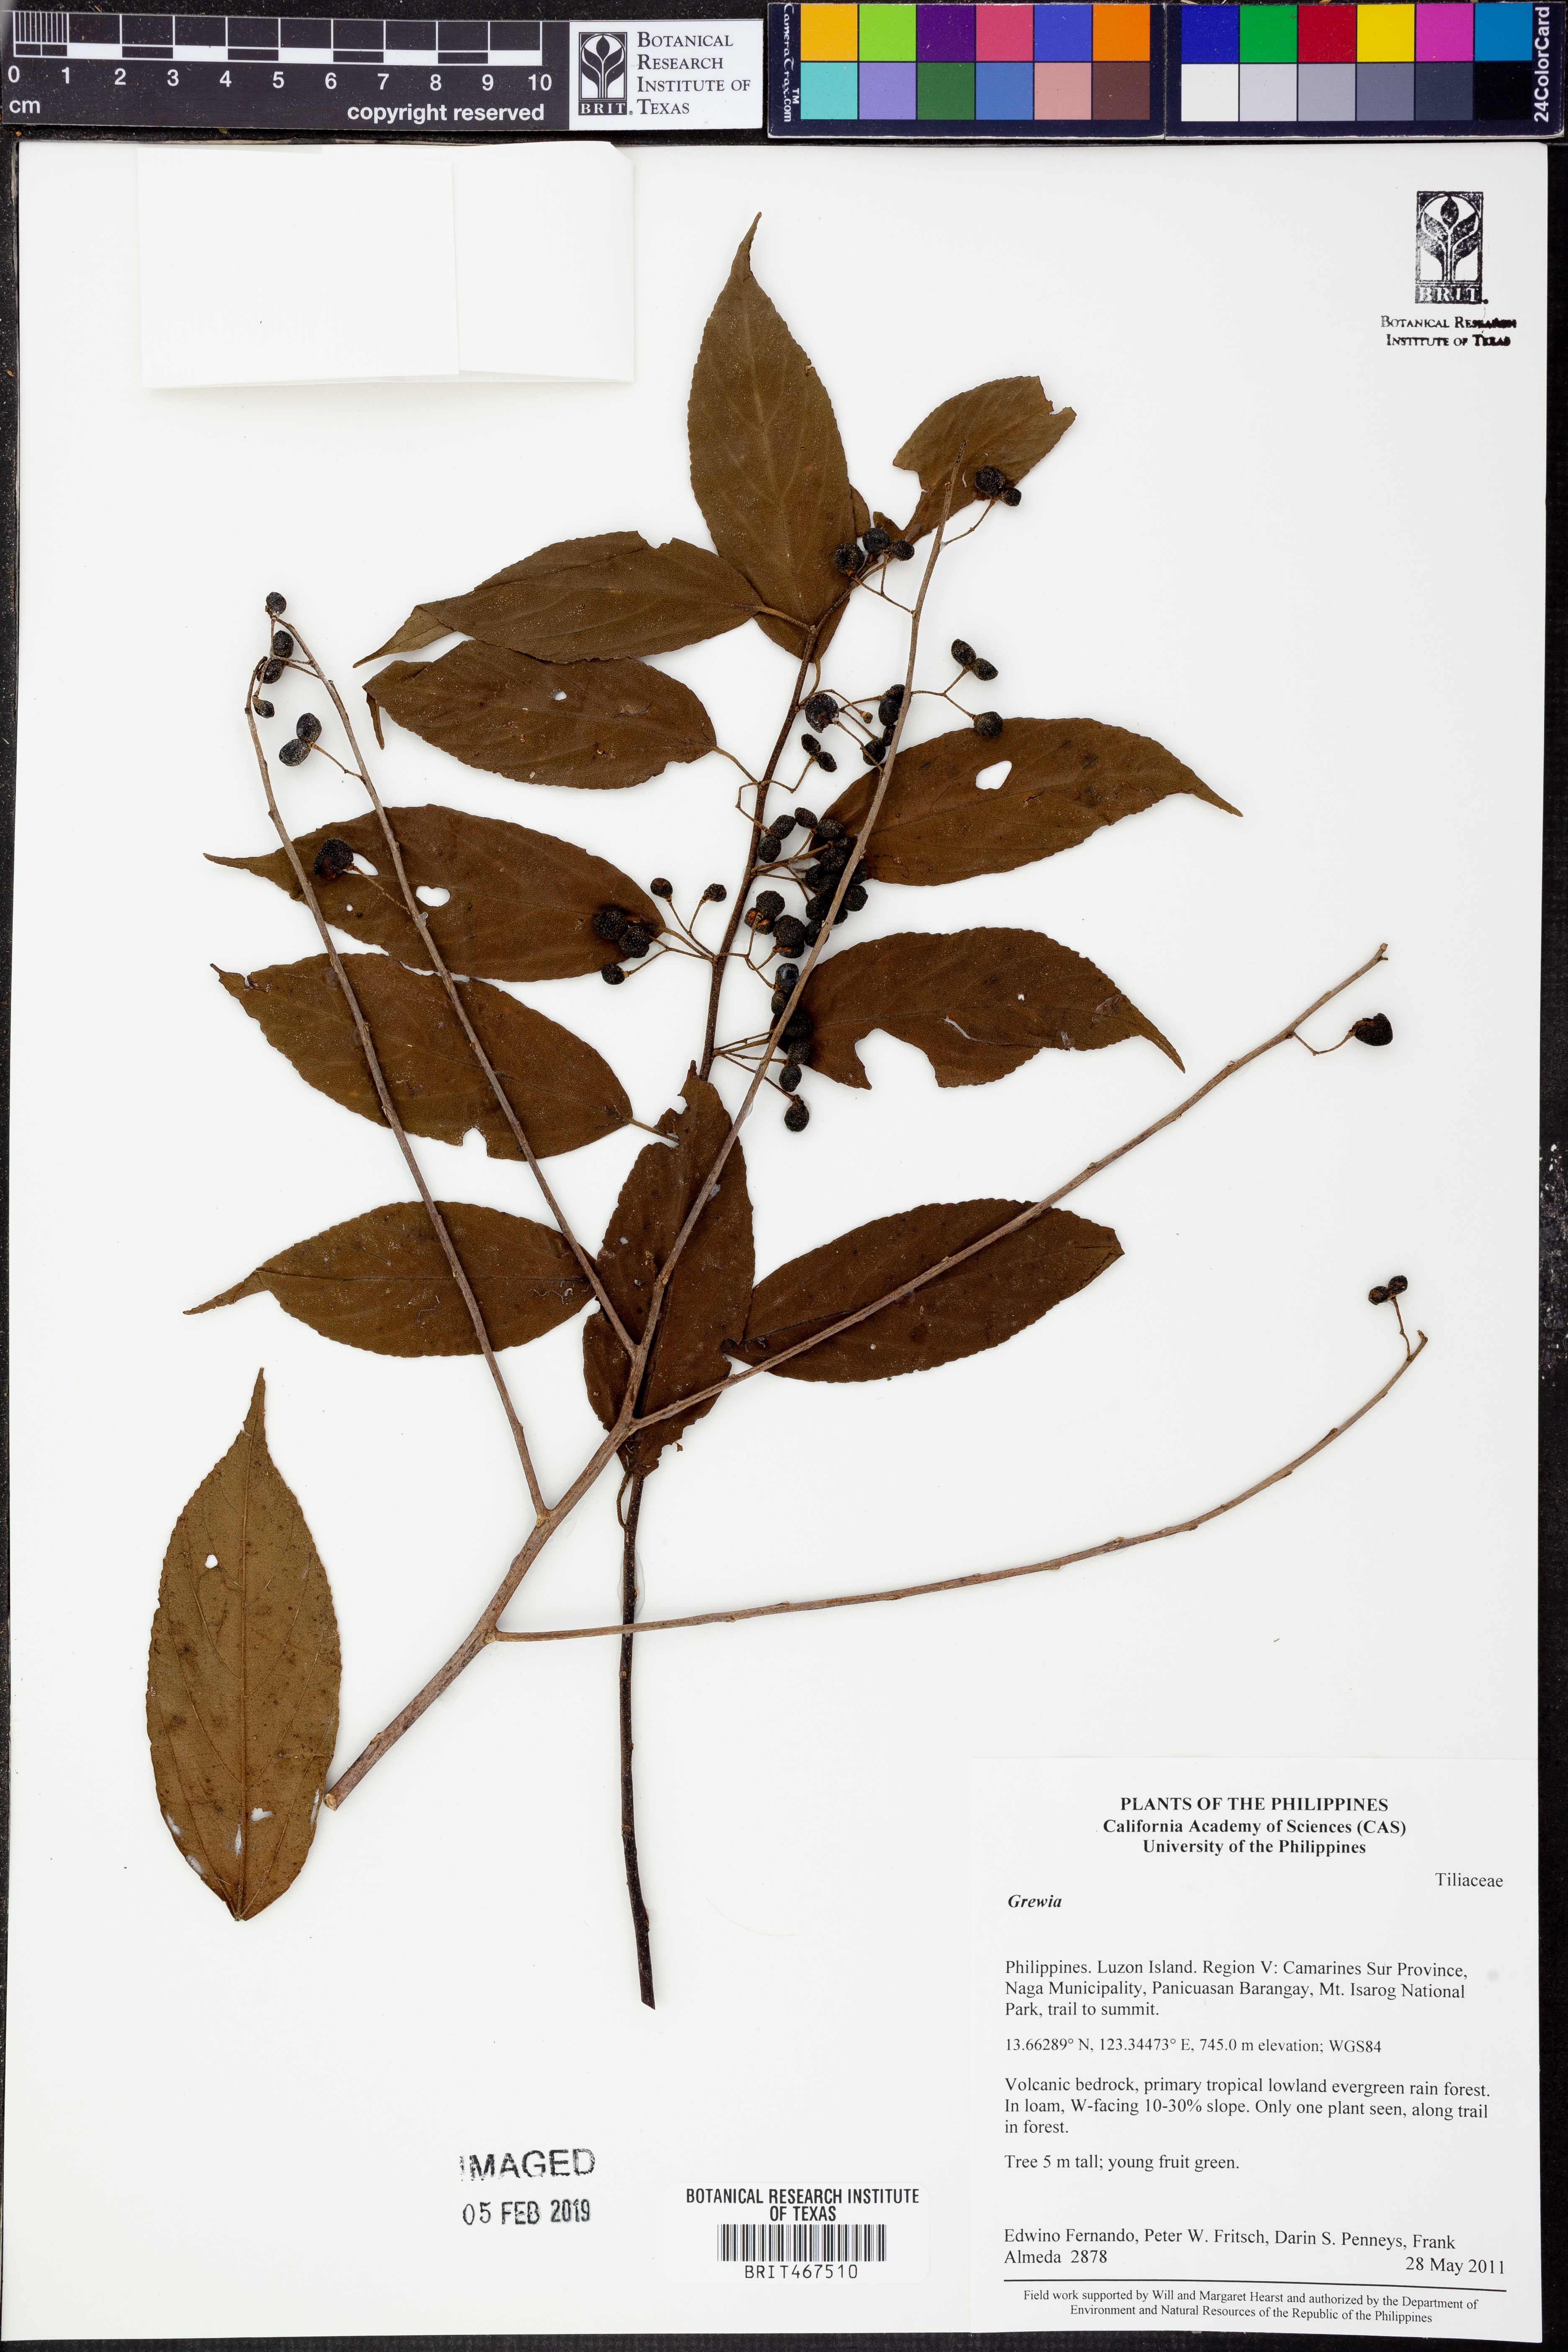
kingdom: Plantae
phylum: Tracheophyta
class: Magnoliopsida
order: Malvales
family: Malvaceae
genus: Grewia
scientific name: Grewia
